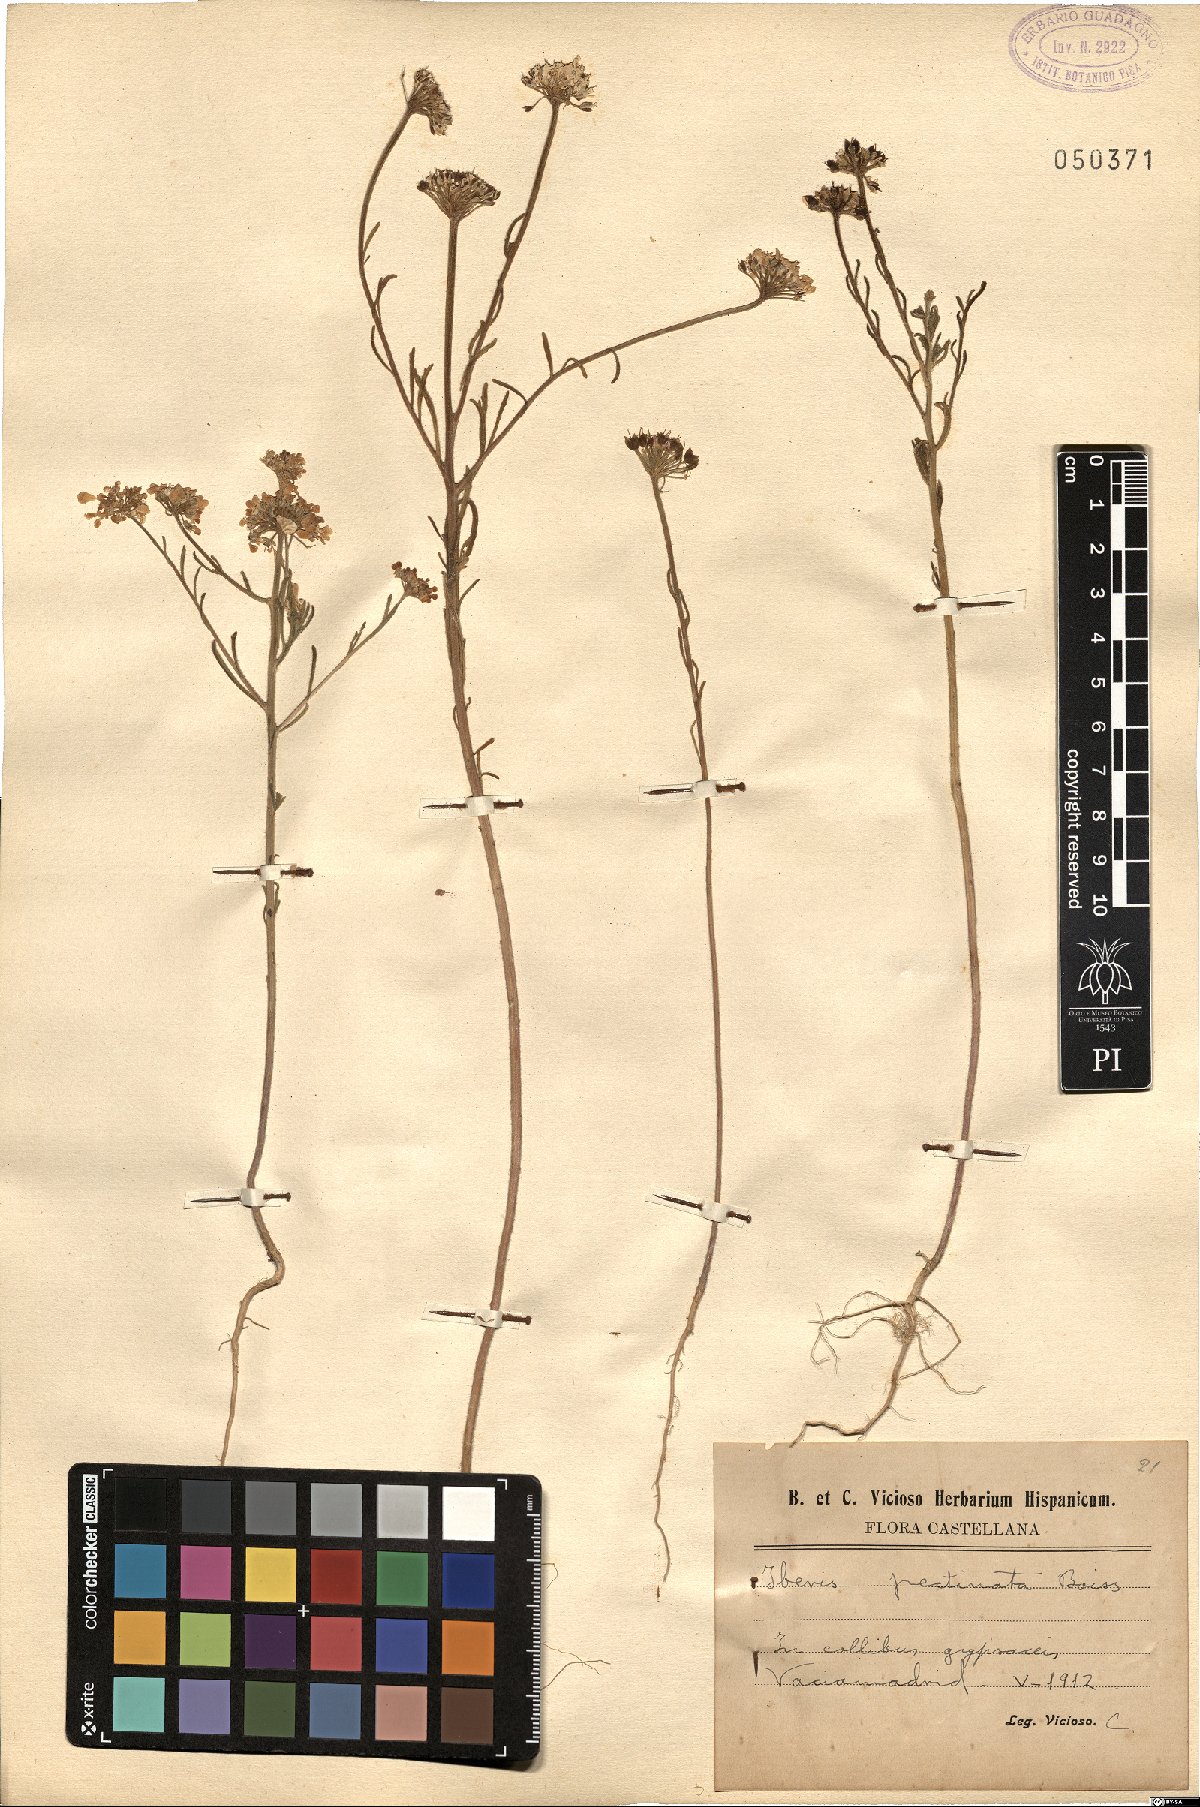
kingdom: Plantae
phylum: Tracheophyta
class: Magnoliopsida
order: Brassicales
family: Brassicaceae
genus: Iberis
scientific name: Iberis pectinata
